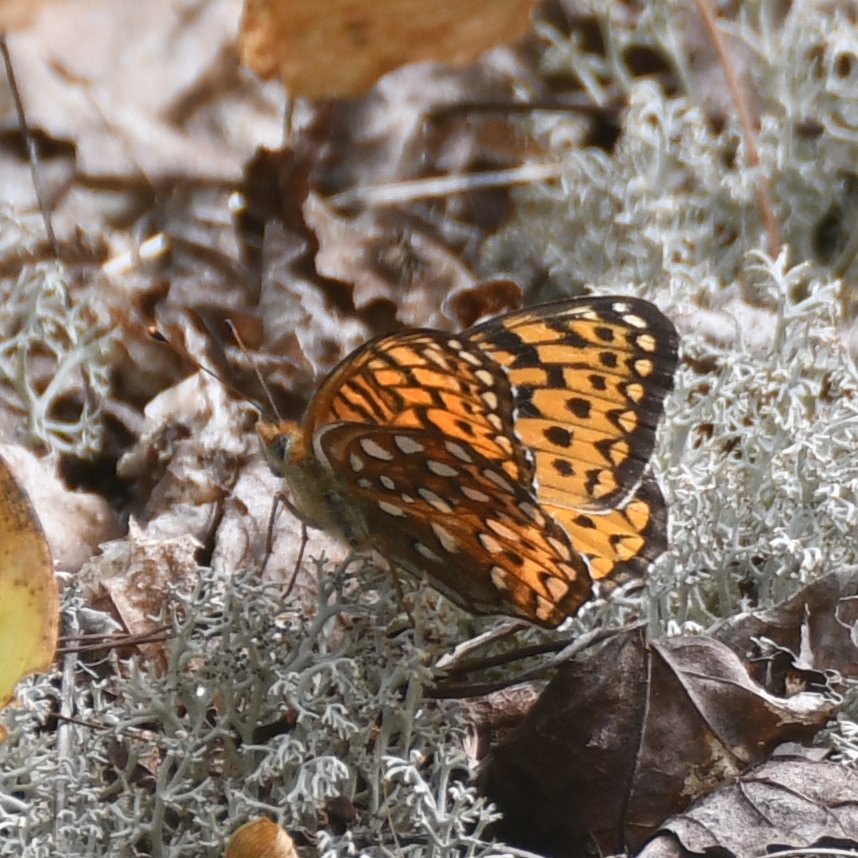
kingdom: Animalia
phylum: Arthropoda
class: Insecta
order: Lepidoptera
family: Nymphalidae
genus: Speyeria
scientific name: Speyeria atlantis
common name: Atlantis Fritillary
